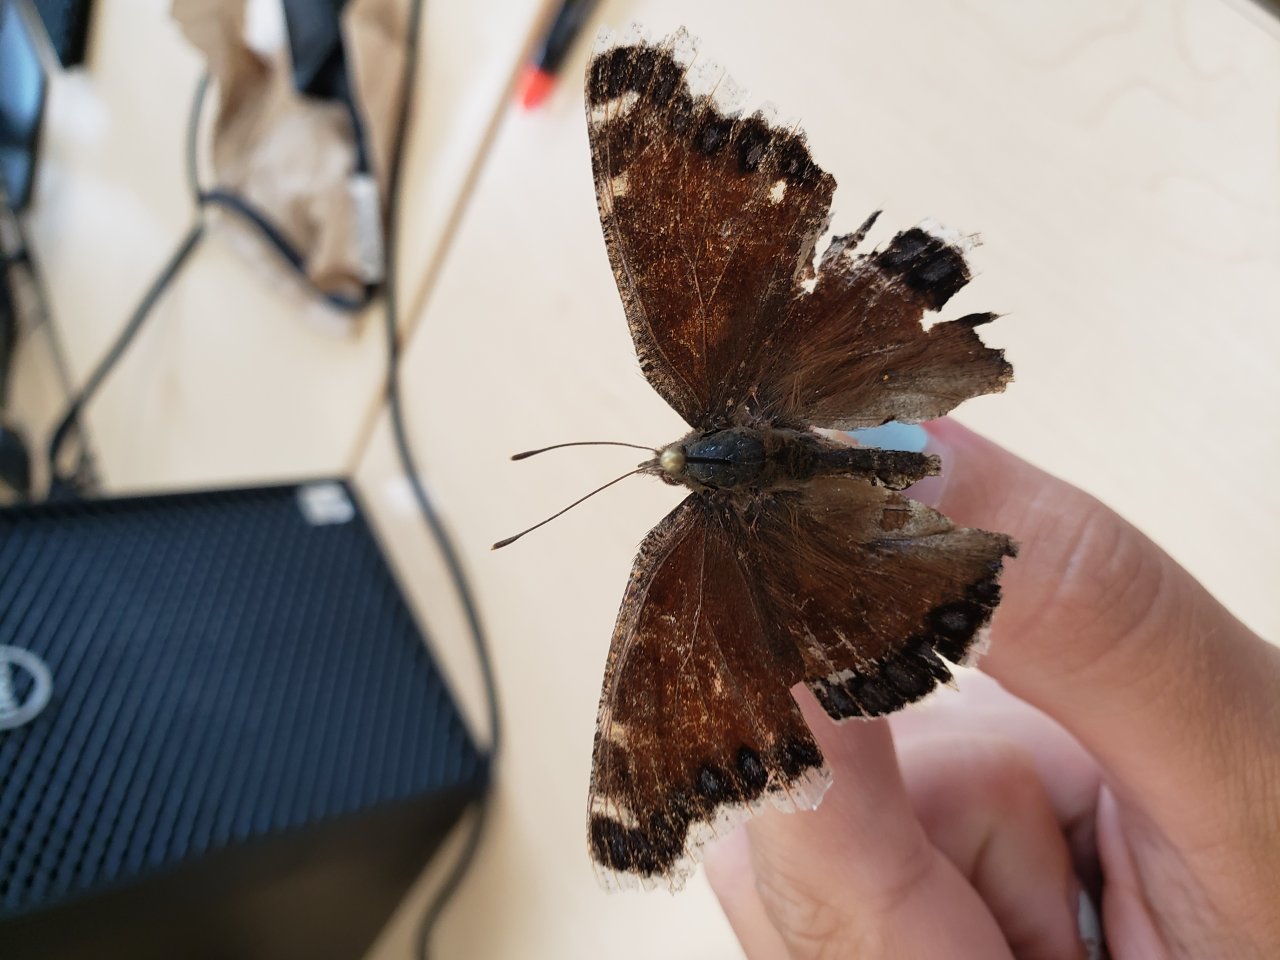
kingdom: Animalia
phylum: Arthropoda
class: Insecta
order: Lepidoptera
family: Nymphalidae
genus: Nymphalis
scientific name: Nymphalis antiopa
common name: Mourning Cloak
